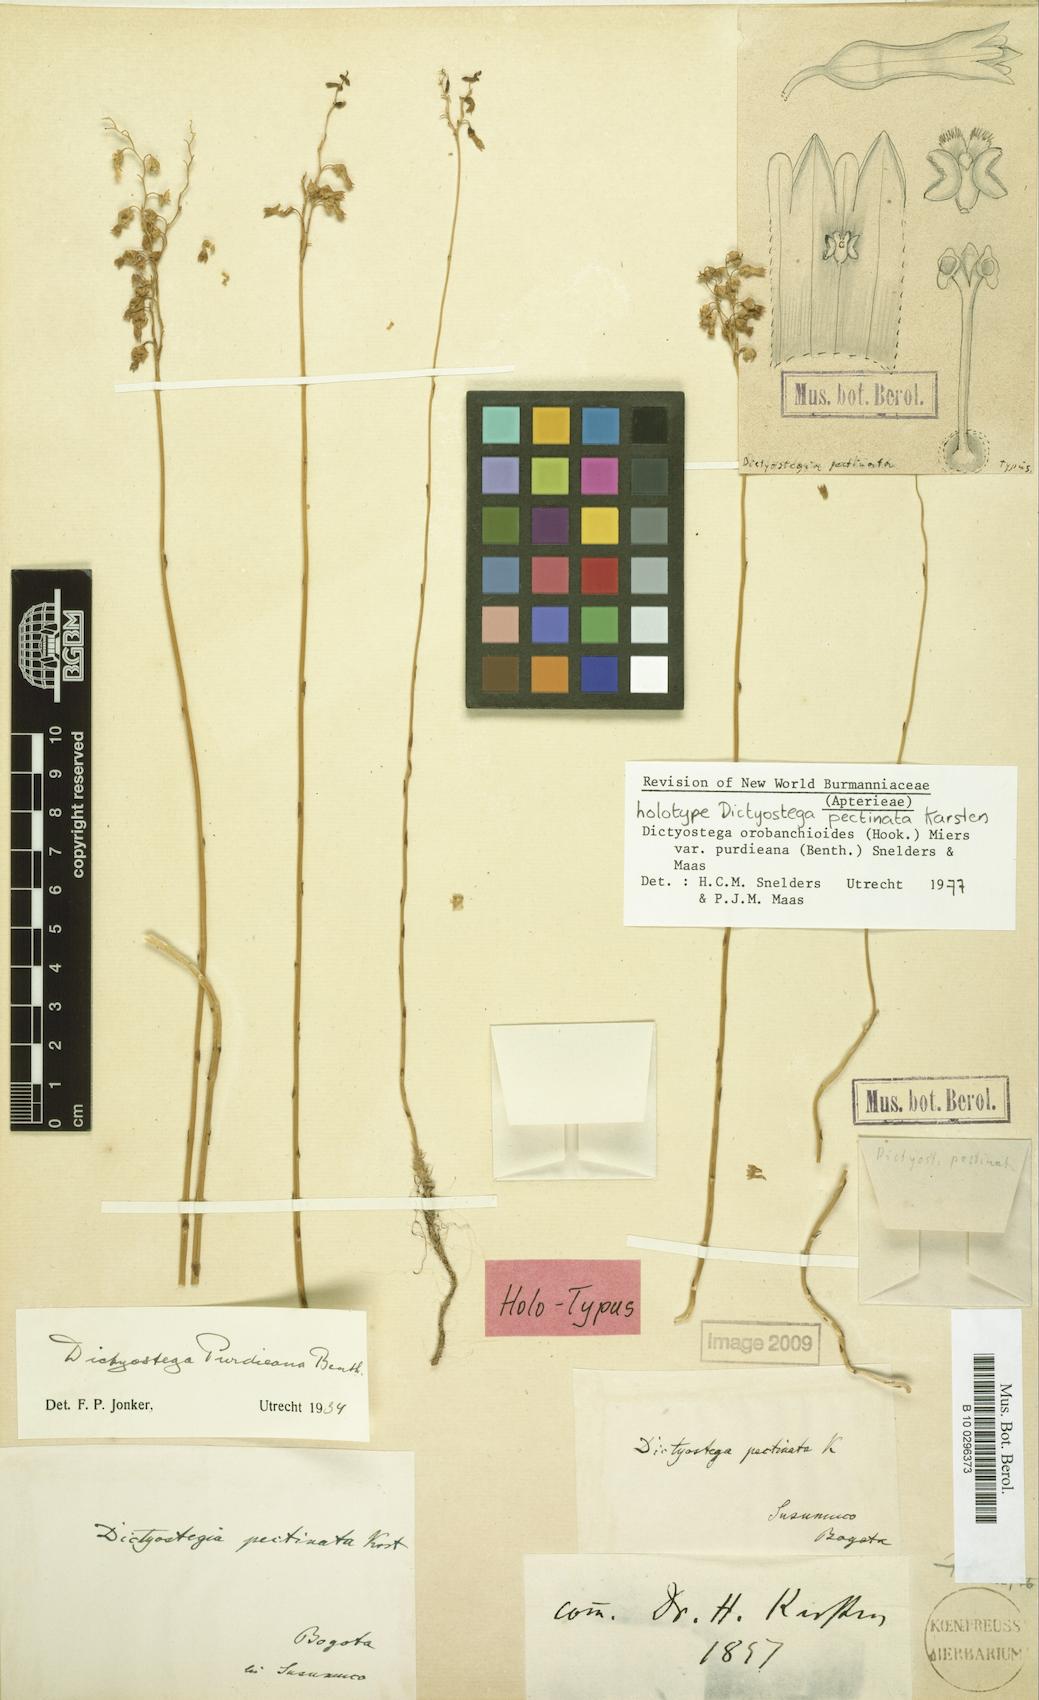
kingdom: Plantae
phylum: Tracheophyta
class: Liliopsida
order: Dioscoreales
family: Burmanniaceae
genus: Dictyostega
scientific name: Dictyostega orobanchoides
